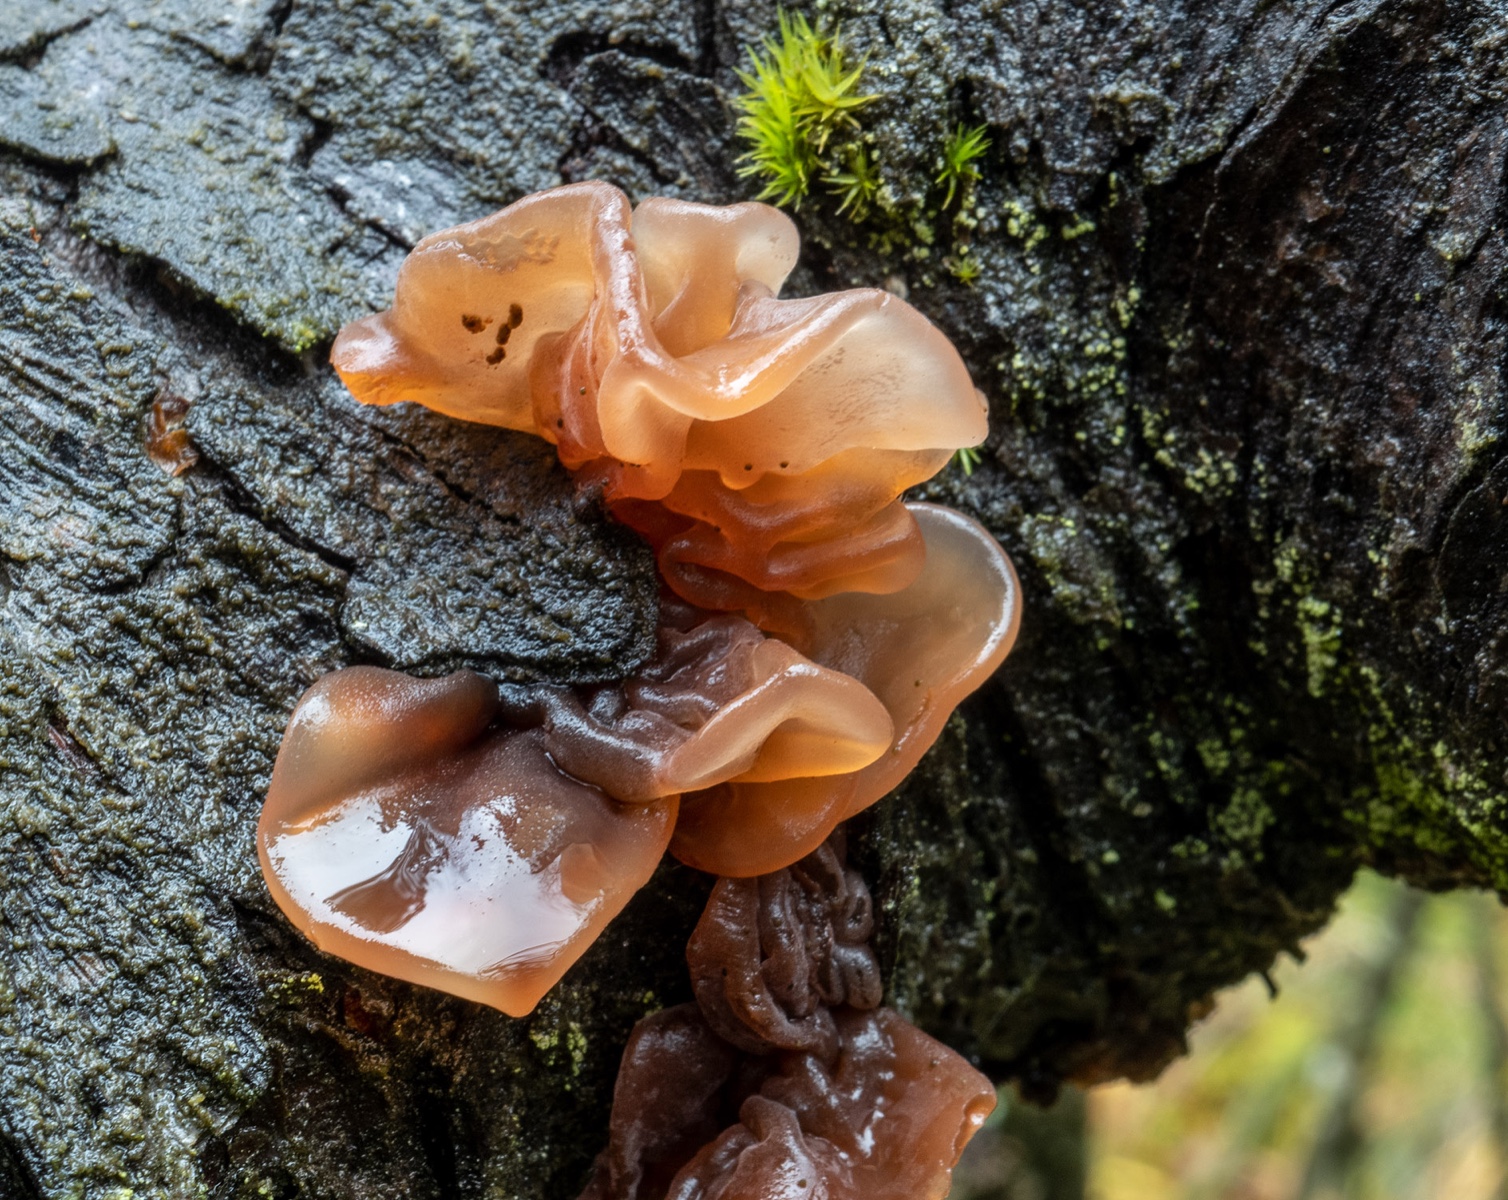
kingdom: Fungi
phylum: Basidiomycota
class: Tremellomycetes
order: Tremellales
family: Tremellaceae
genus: Phaeotremella
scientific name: Phaeotremella foliacea
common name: brun bævresvamp
